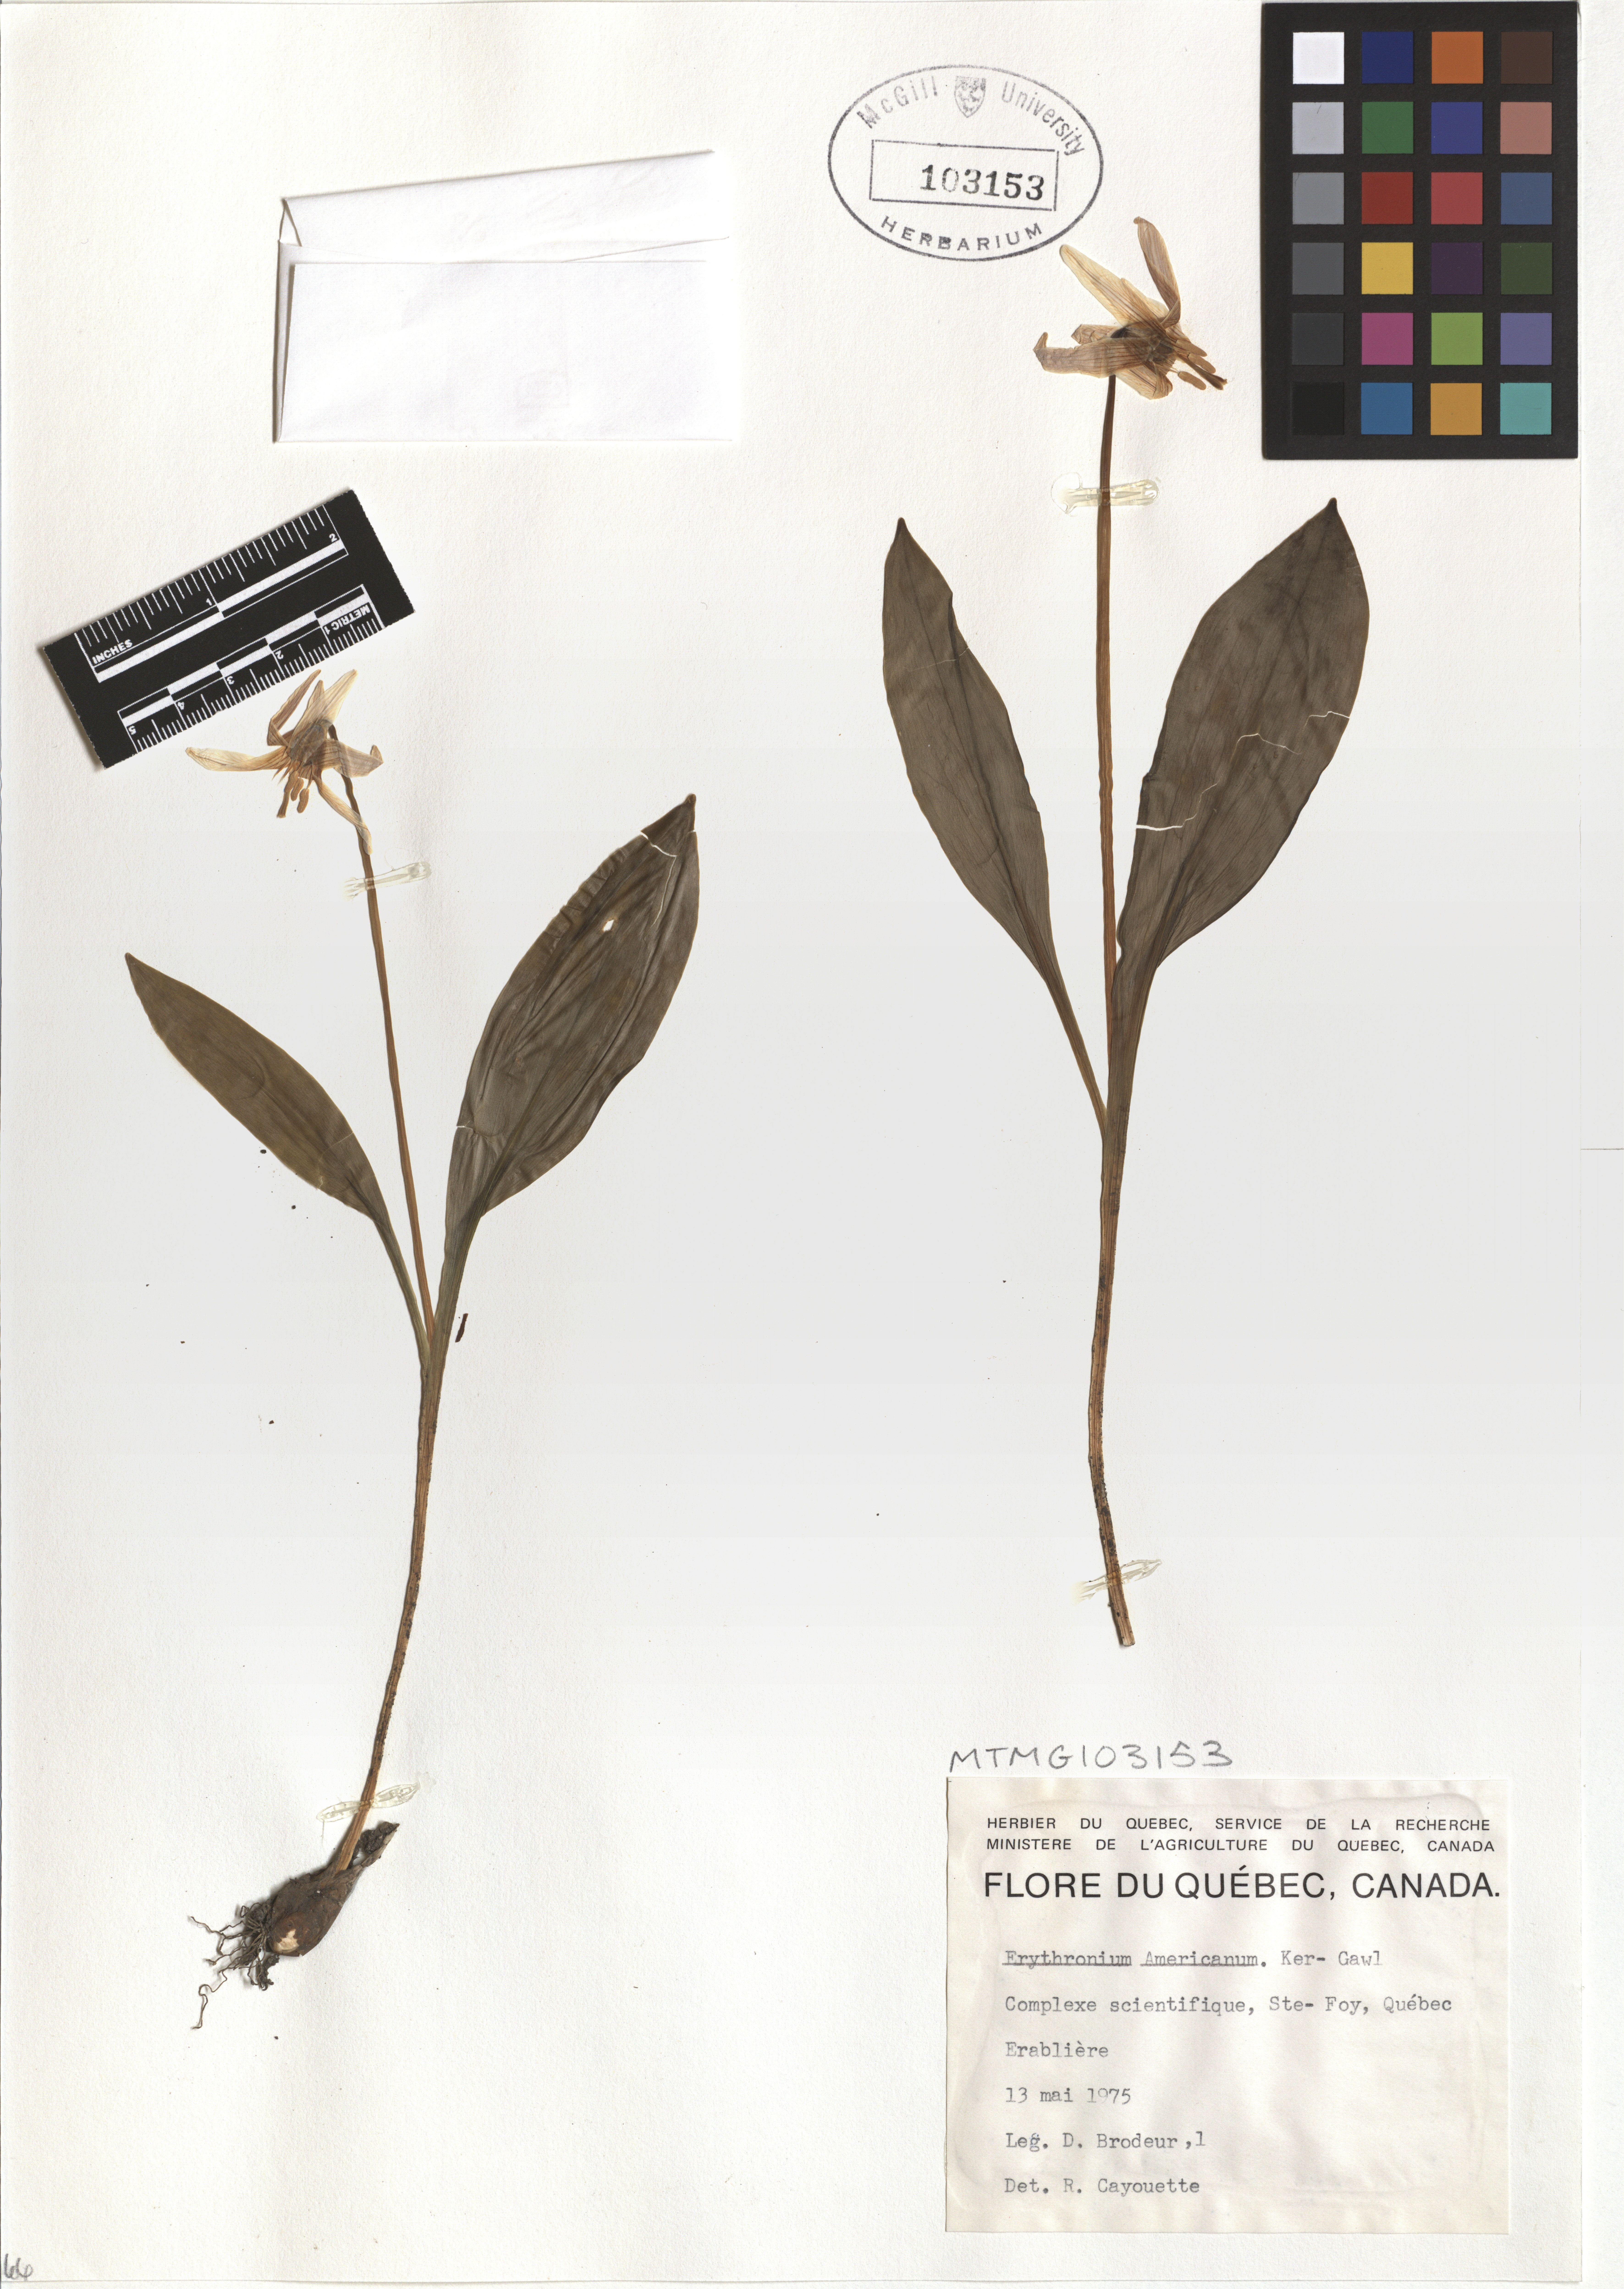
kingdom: Plantae
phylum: Tracheophyta
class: Liliopsida
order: Liliales
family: Liliaceae
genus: Erythronium
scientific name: Erythronium americanum
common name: Yellow adder's-tongue
